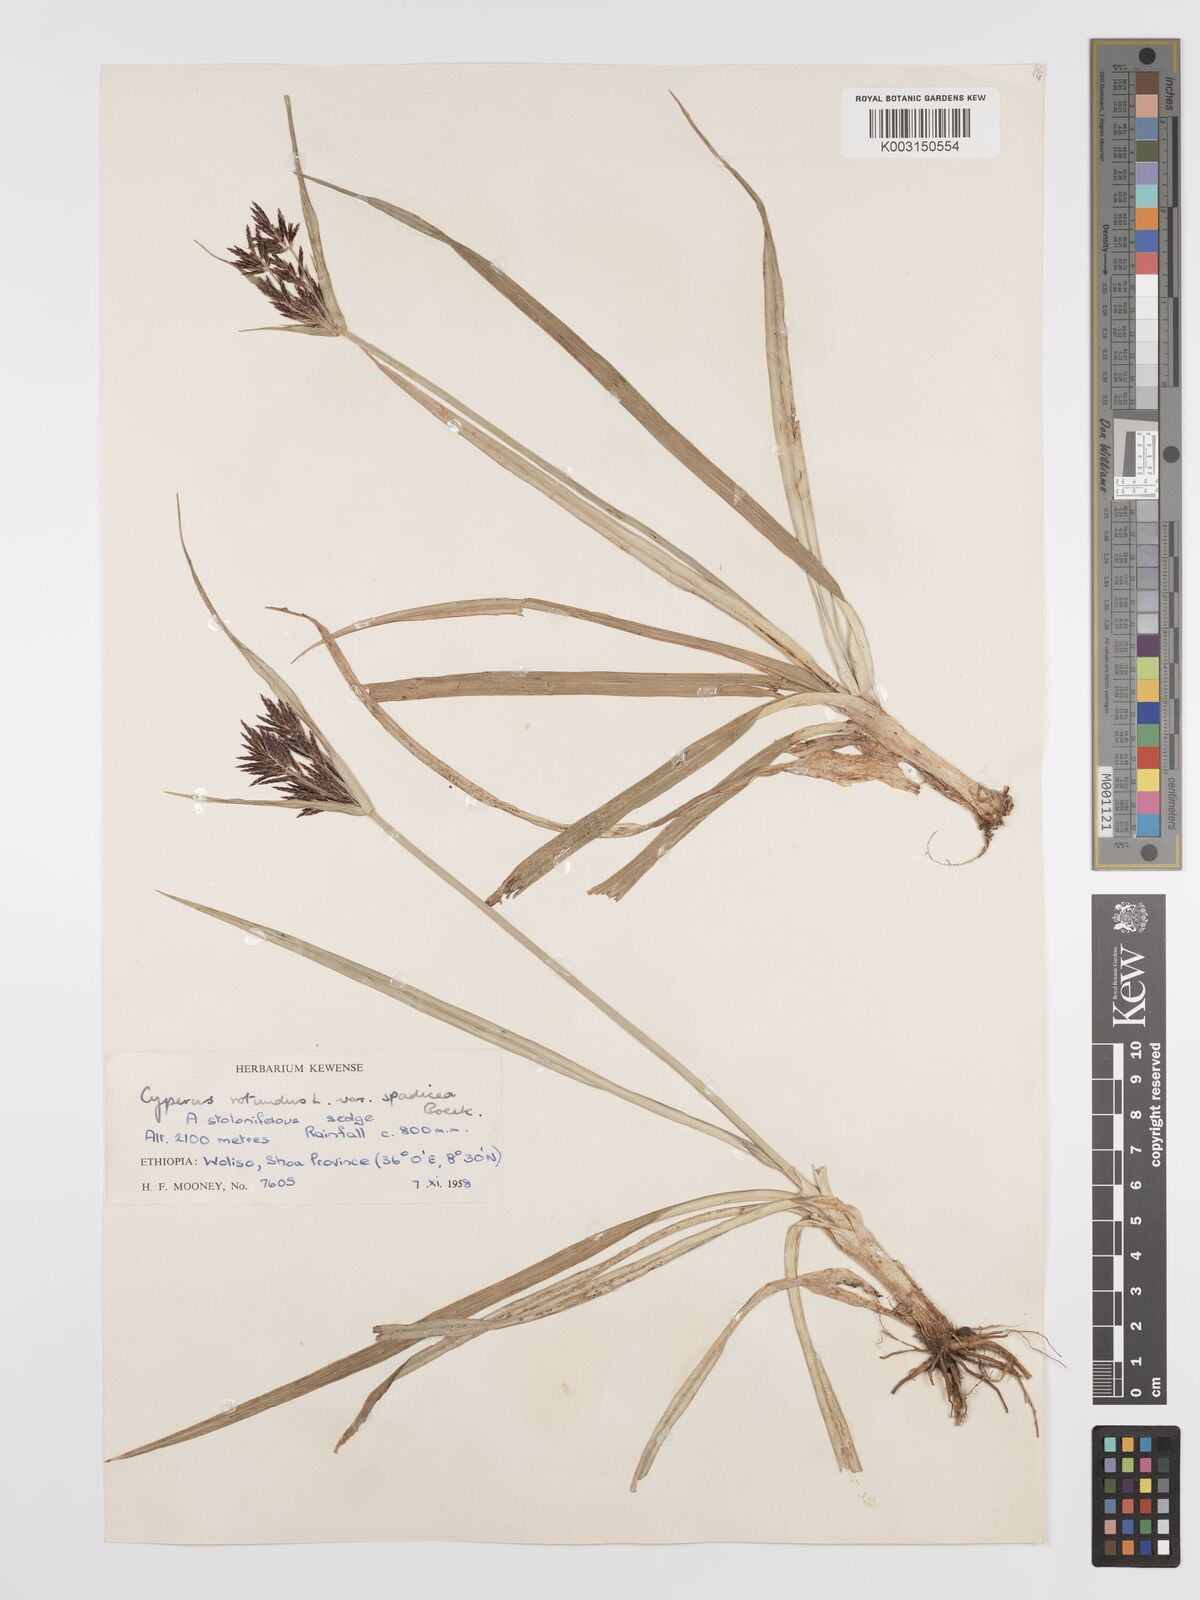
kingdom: Plantae
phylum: Tracheophyta
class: Liliopsida
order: Poales
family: Cyperaceae
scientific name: Cyperaceae
